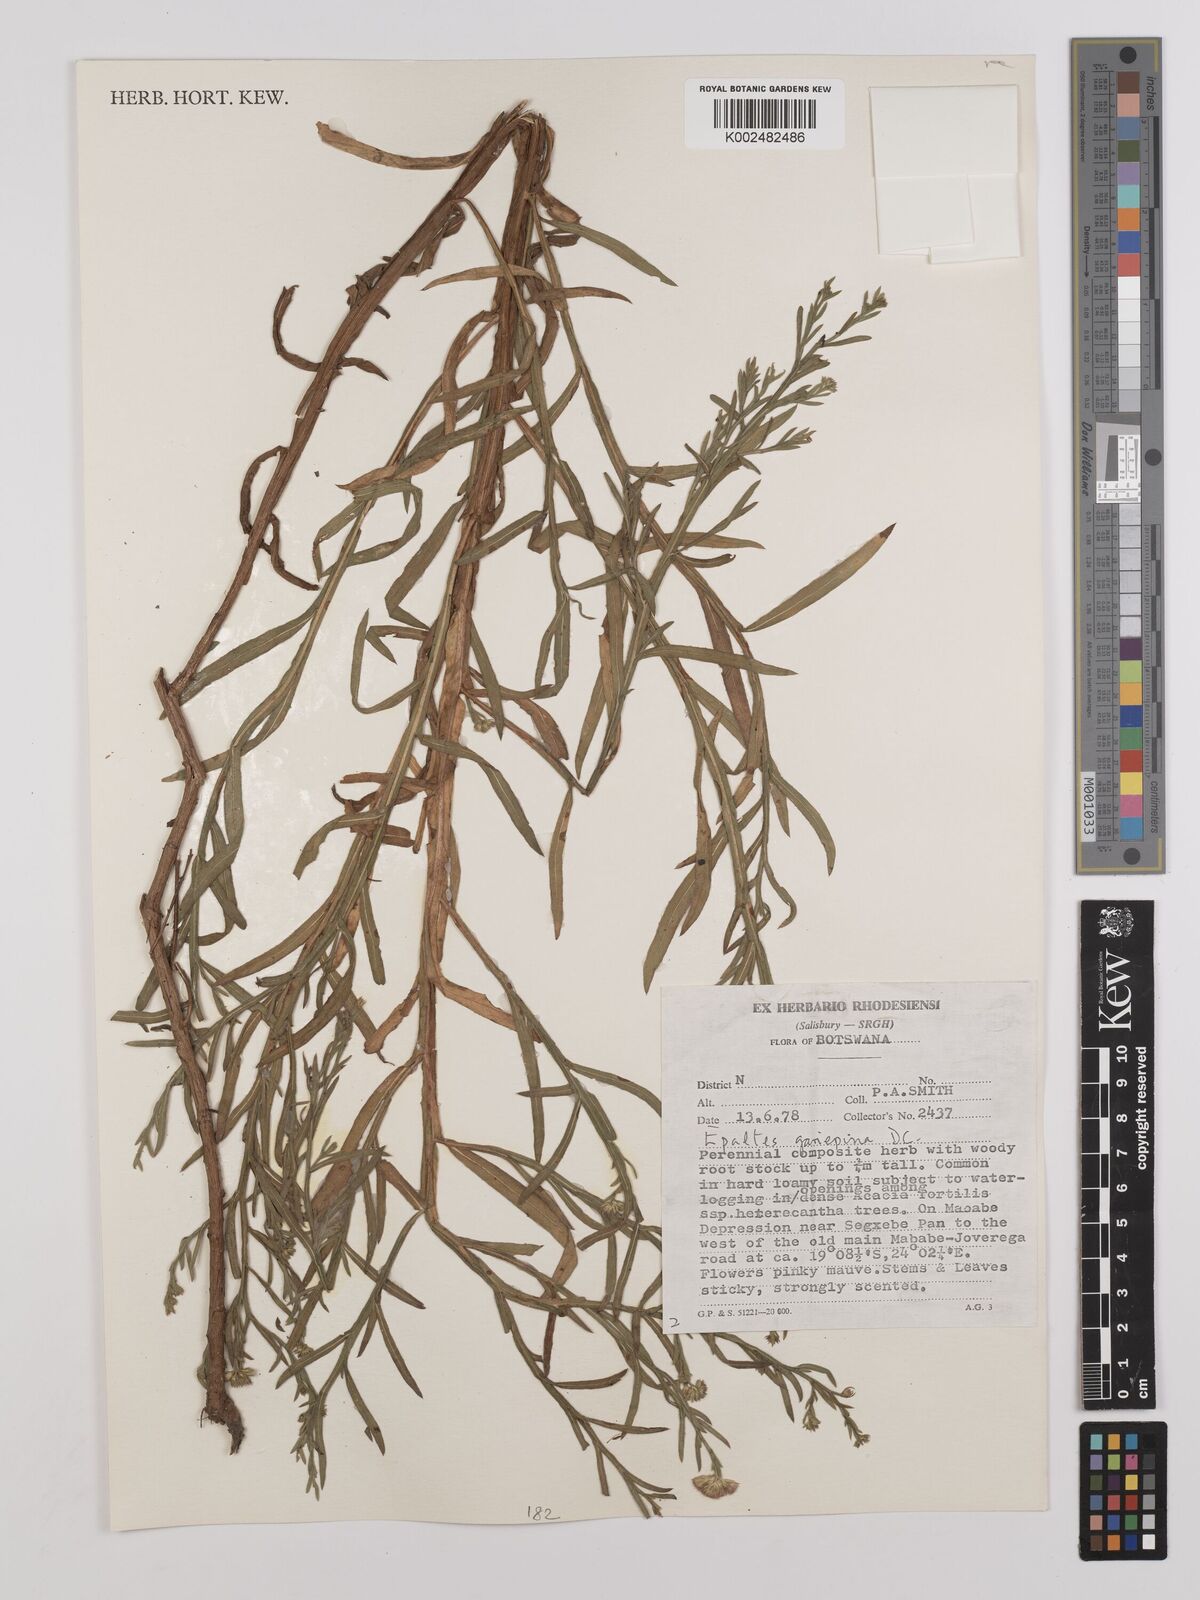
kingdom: Plantae
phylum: Tracheophyta
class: Magnoliopsida
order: Asterales
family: Asteraceae
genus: Litogyne
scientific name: Litogyne gariepina
